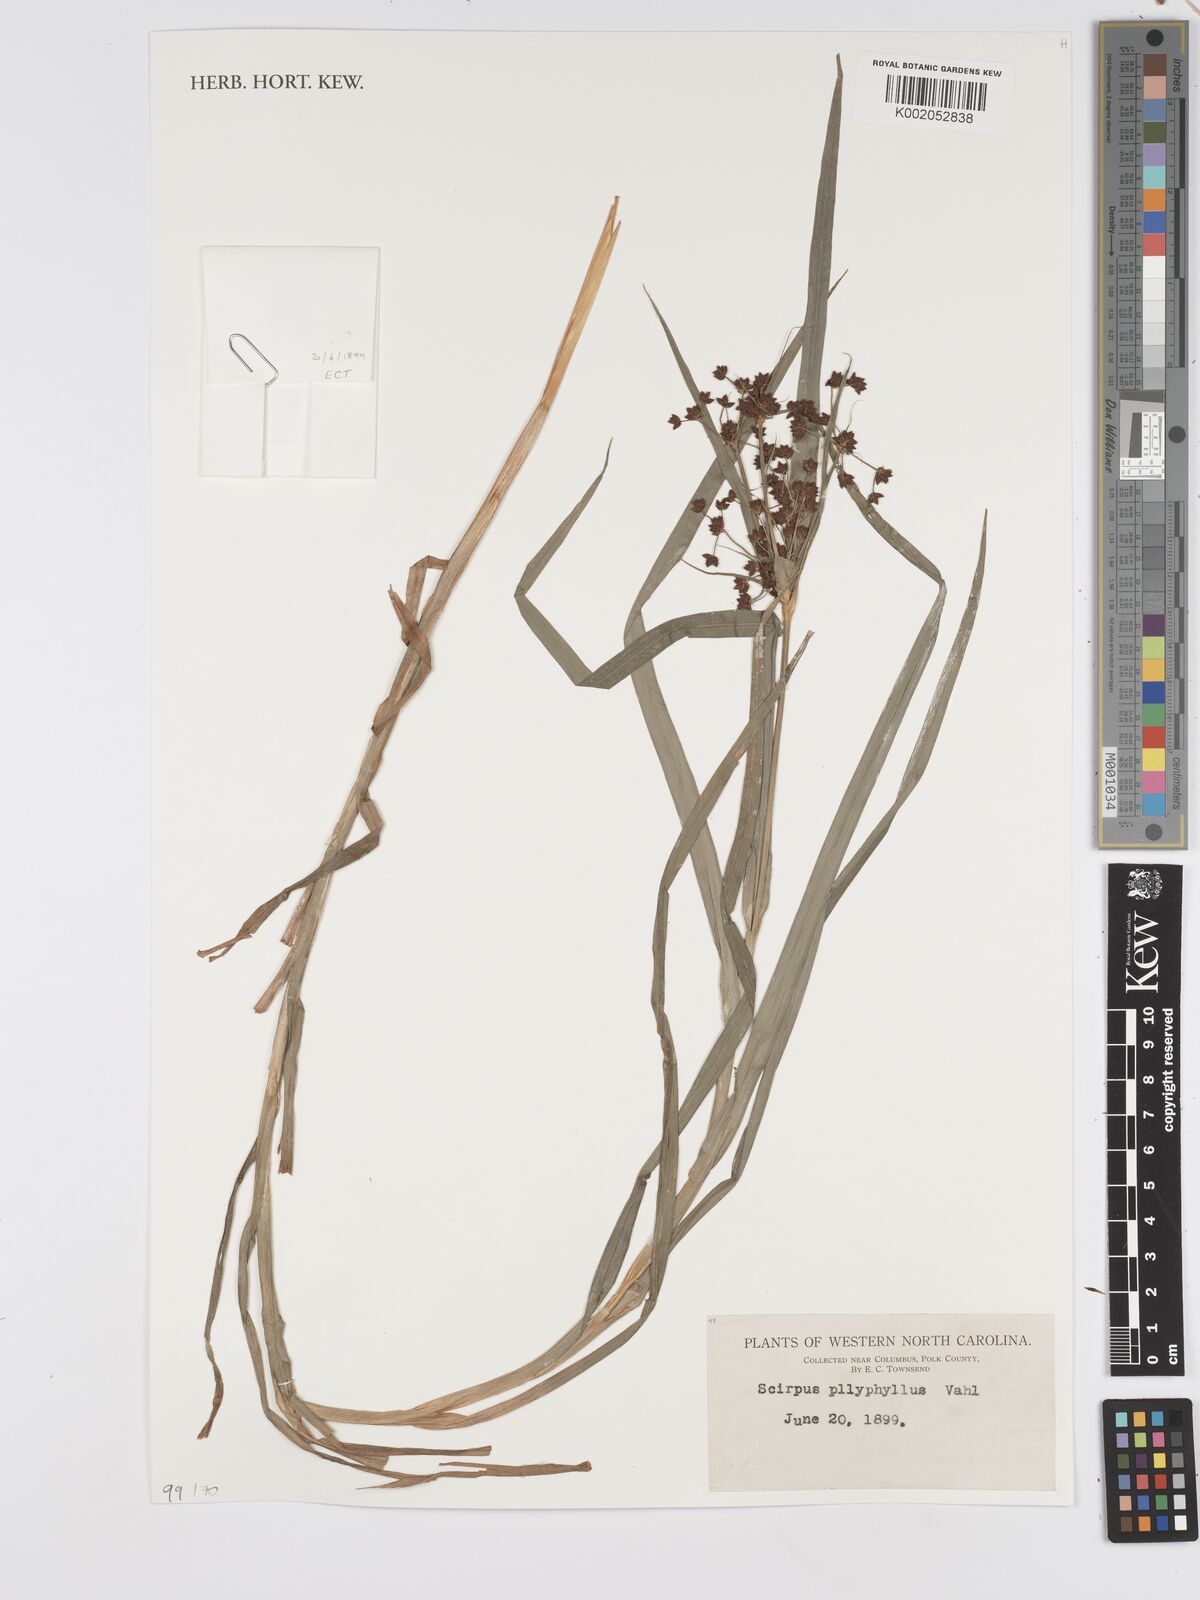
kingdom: Plantae
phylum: Tracheophyta
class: Liliopsida
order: Poales
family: Cyperaceae
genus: Scirpus
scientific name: Scirpus polyphyllus
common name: Leafy bulrush
